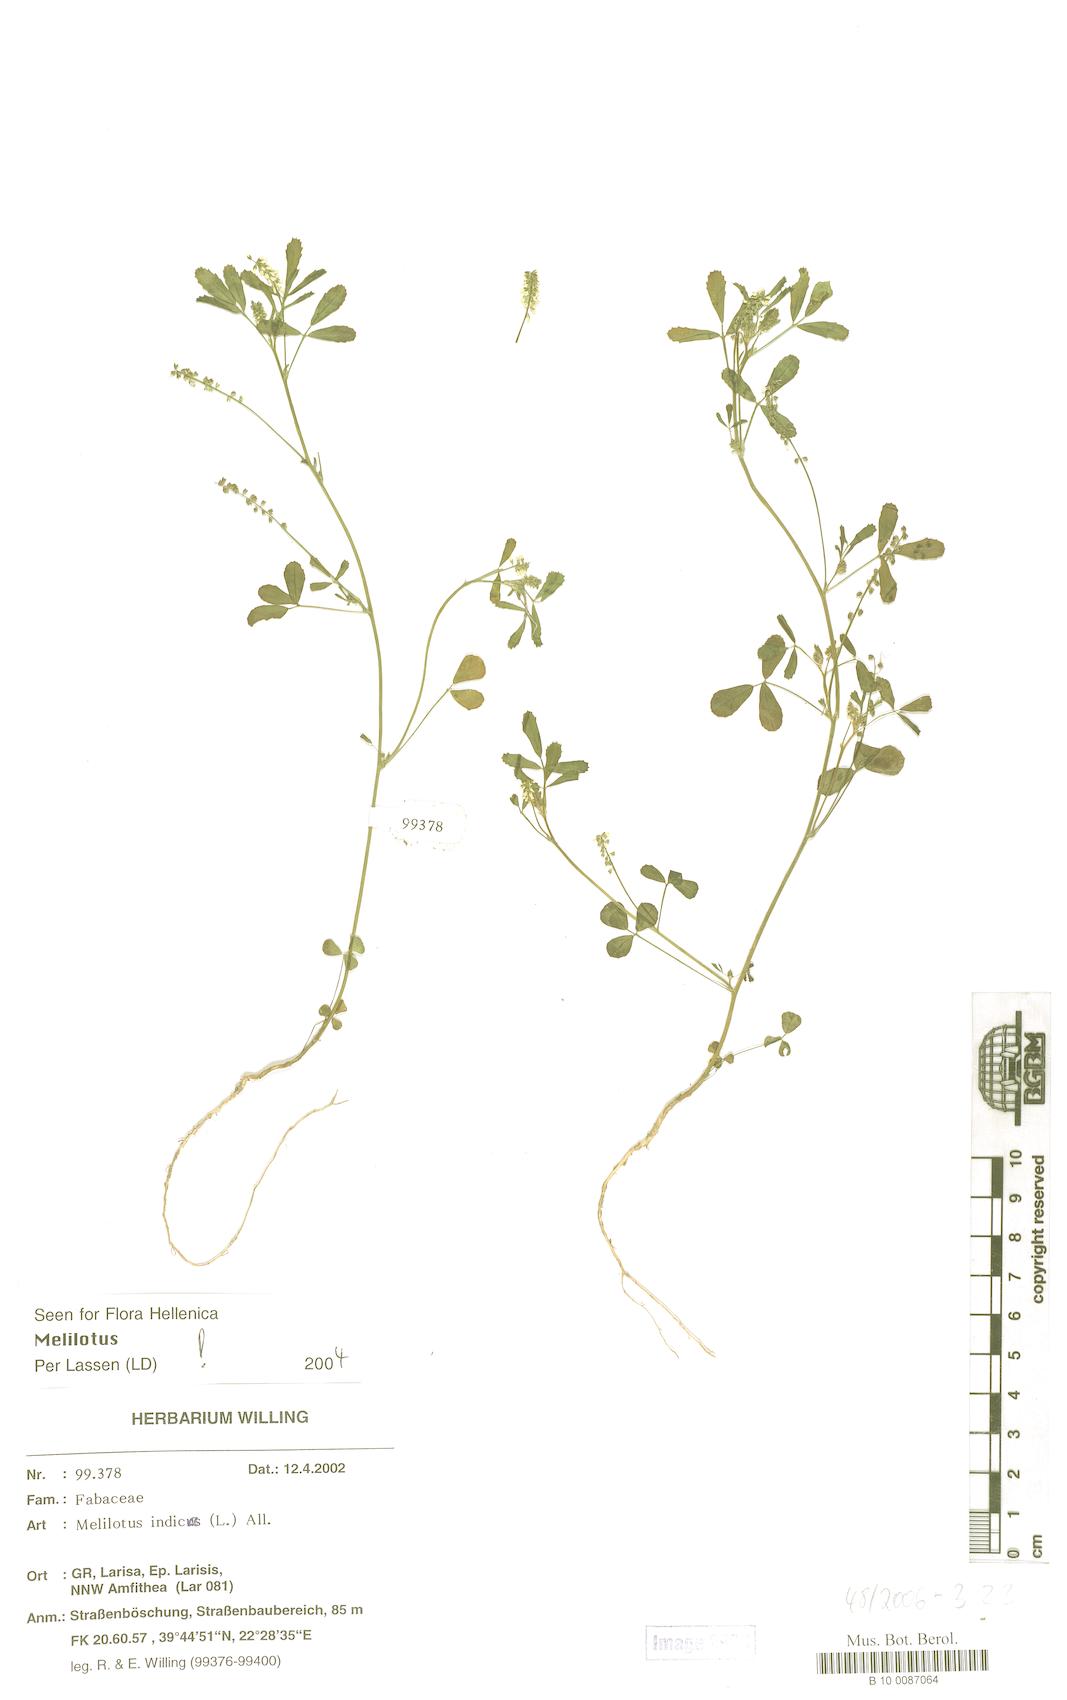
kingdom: Plantae
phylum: Tracheophyta
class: Magnoliopsida
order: Fabales
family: Fabaceae
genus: Melilotus
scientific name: Melilotus indicus
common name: Small melilot
